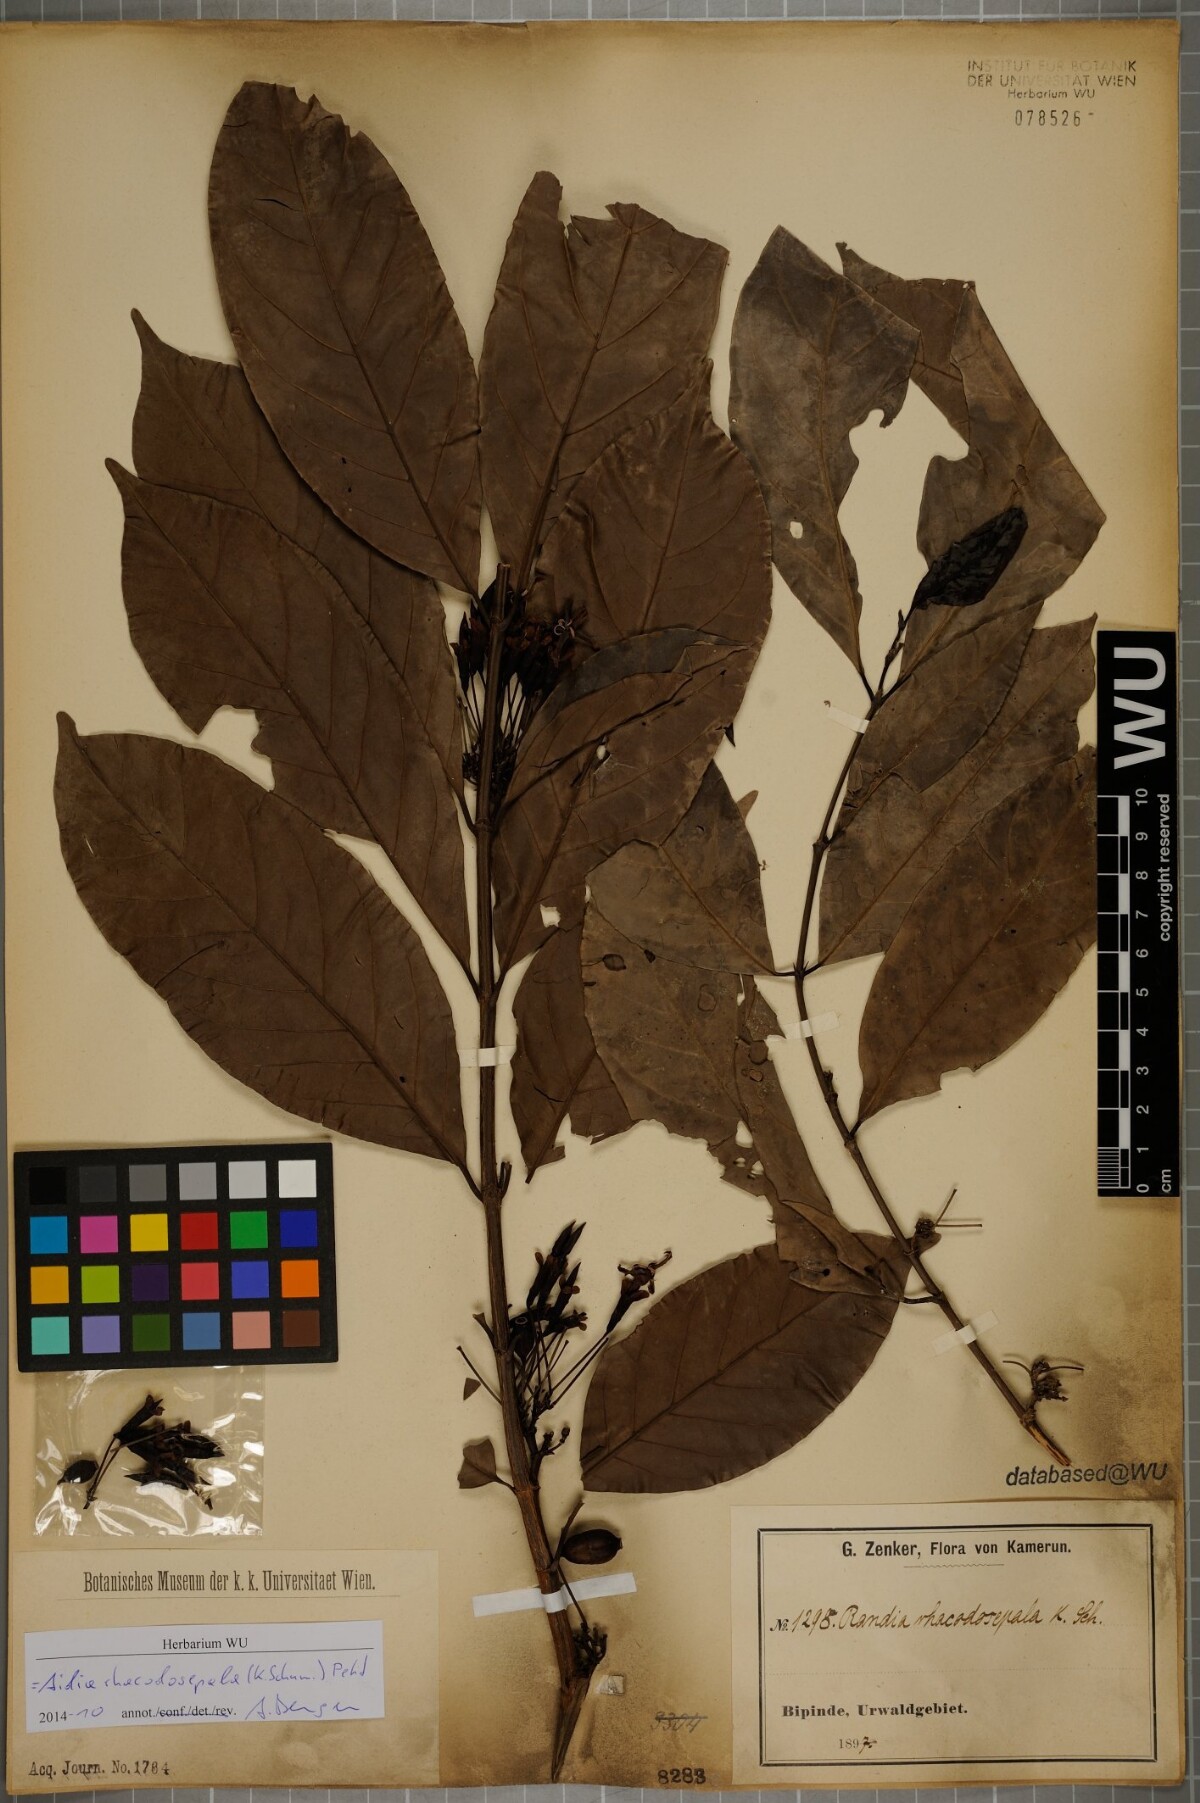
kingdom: Plantae
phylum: Tracheophyta
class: Magnoliopsida
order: Gentianales
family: Rubiaceae
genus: Aidia
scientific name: Aidia rhacodosepala
